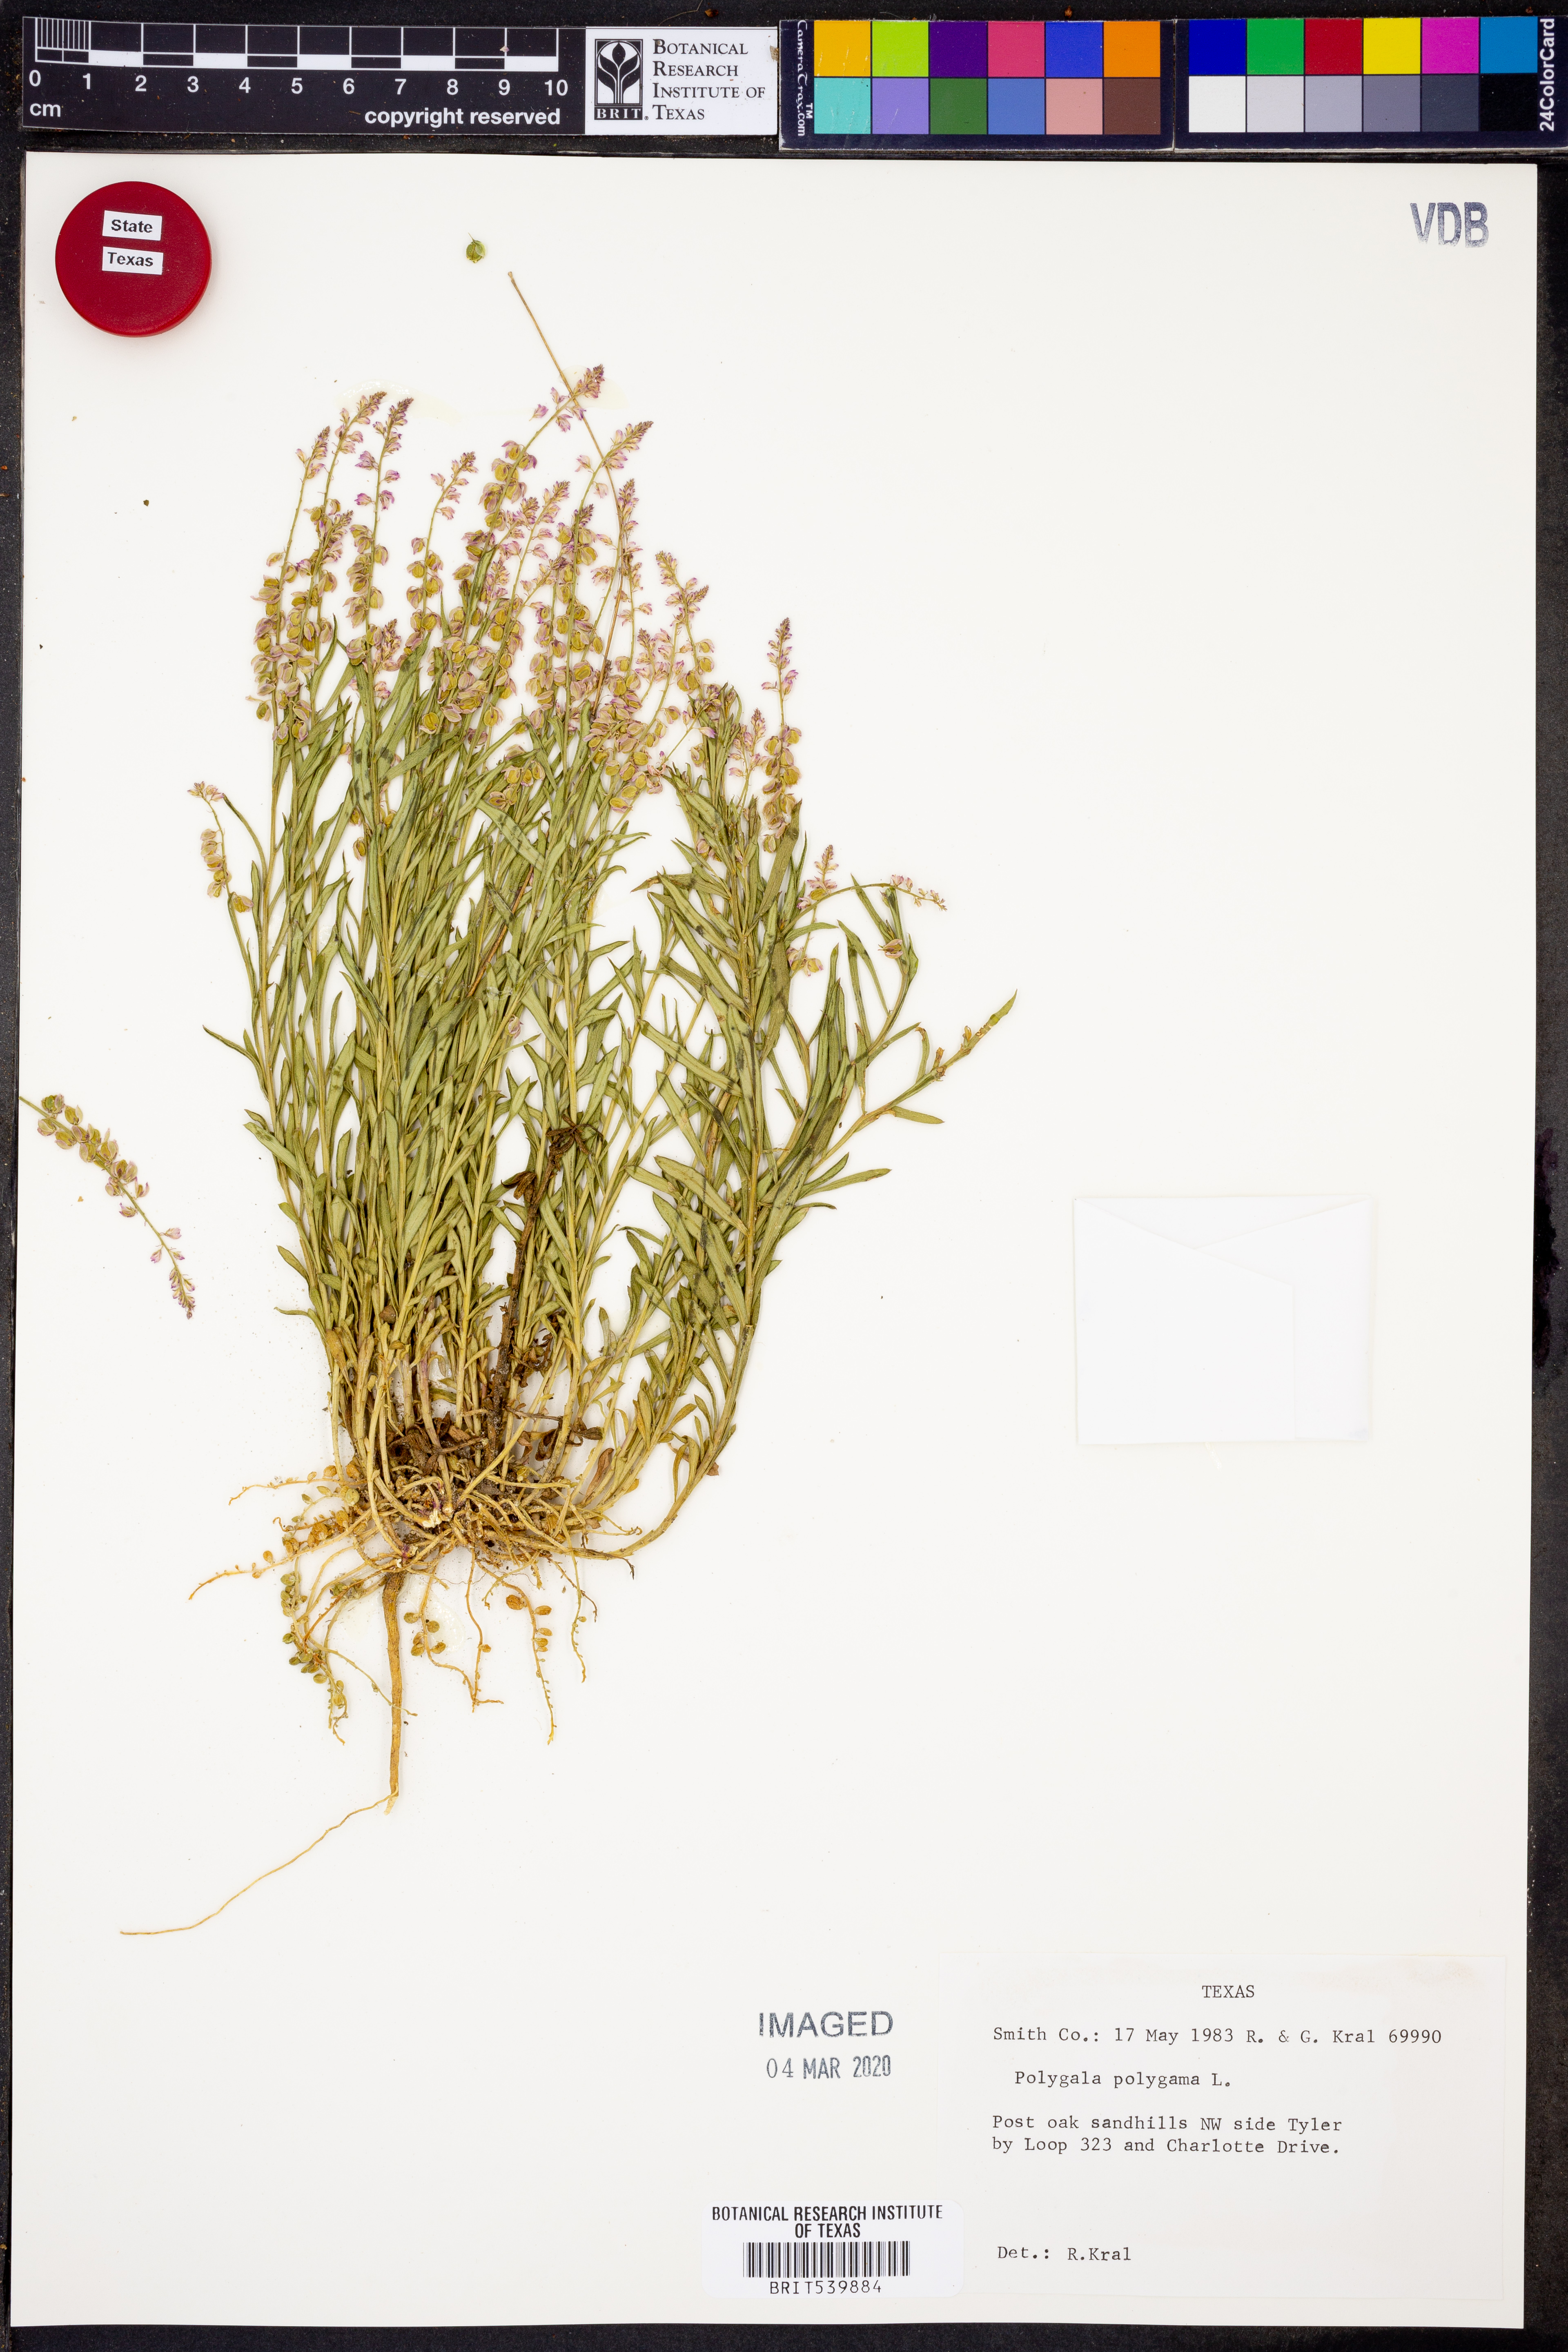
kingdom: Plantae
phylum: Tracheophyta
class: Magnoliopsida
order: Fabales
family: Polygalaceae
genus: Polygala
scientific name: Polygala polygama
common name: Bitter milkwort
